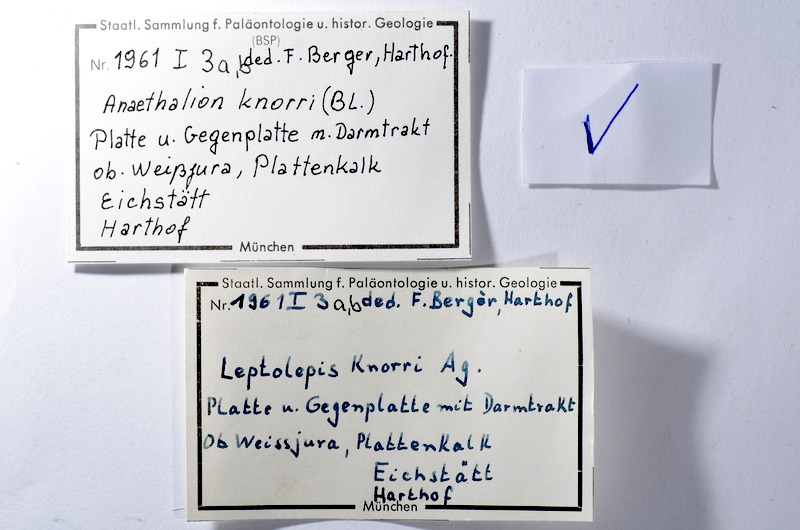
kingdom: Animalia
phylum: Chordata
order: Elopiformes
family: Anaethalionidae
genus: Anaethalion
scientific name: Anaethalion knorri
